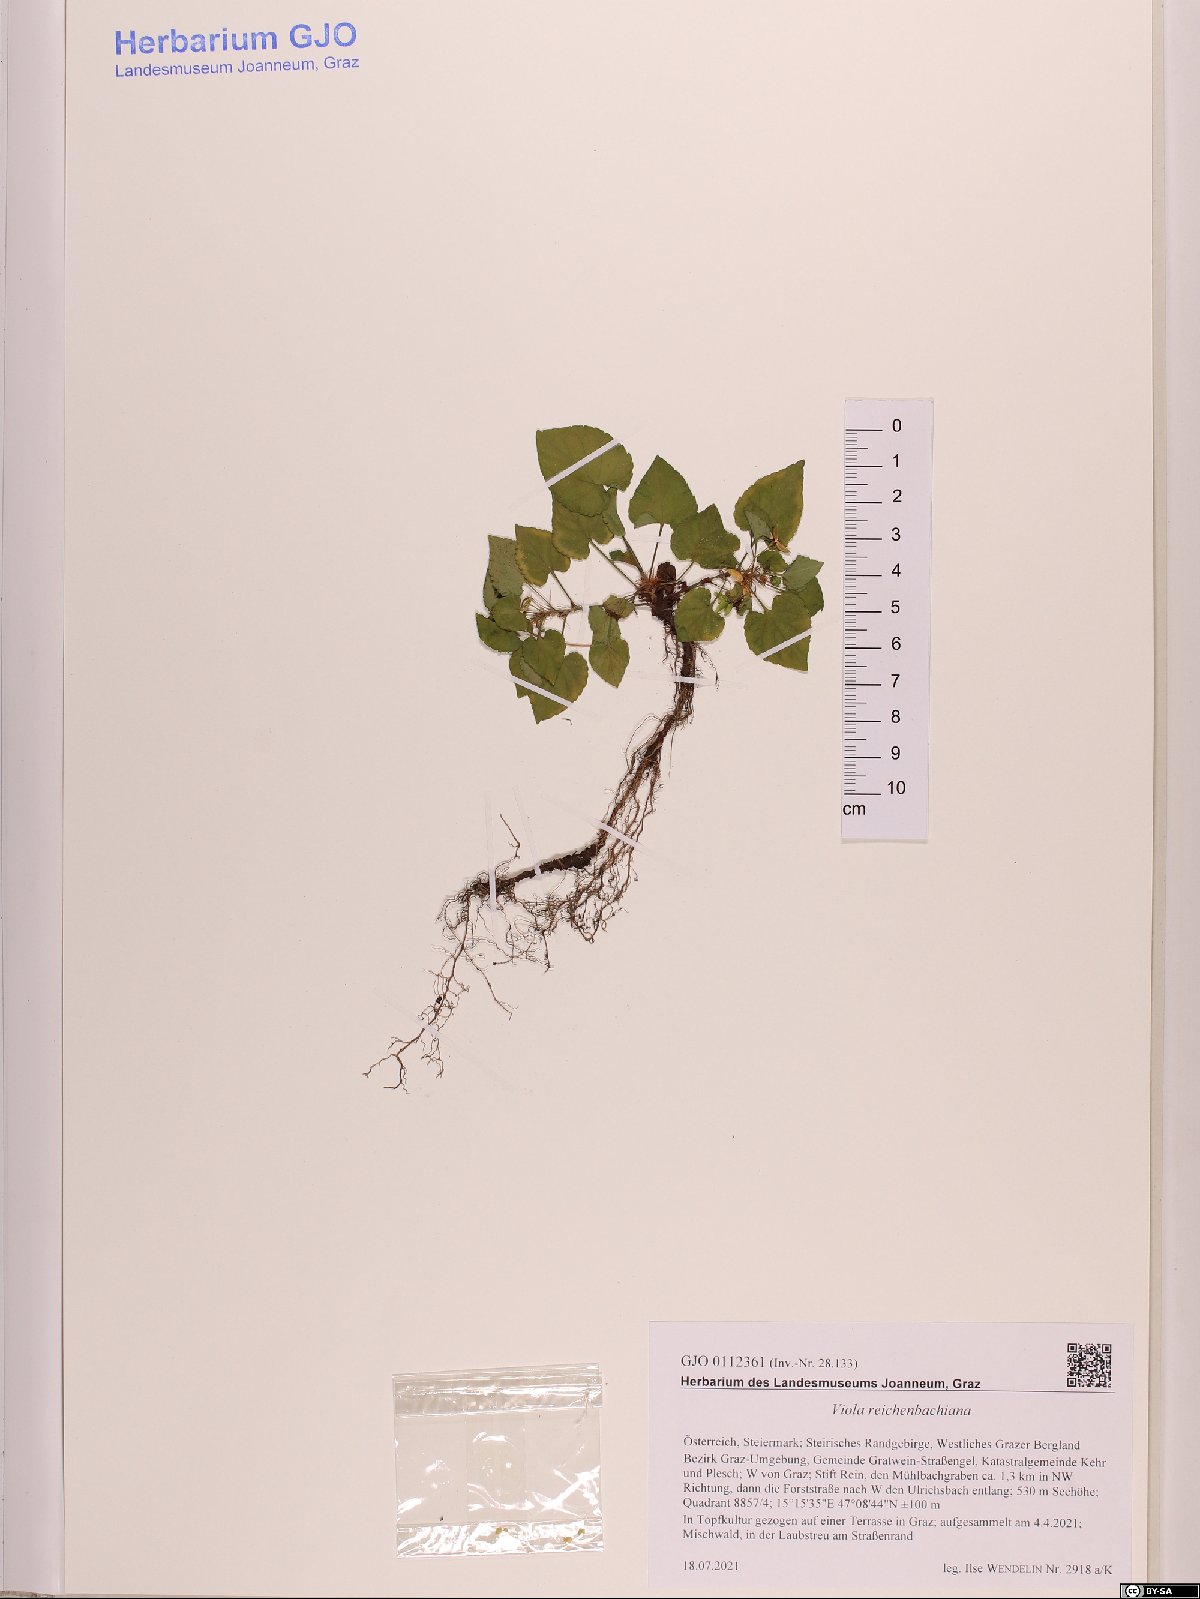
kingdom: Plantae
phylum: Tracheophyta
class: Magnoliopsida
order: Malpighiales
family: Violaceae
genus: Viola
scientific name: Viola reichenbachiana
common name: Early dog-violet
